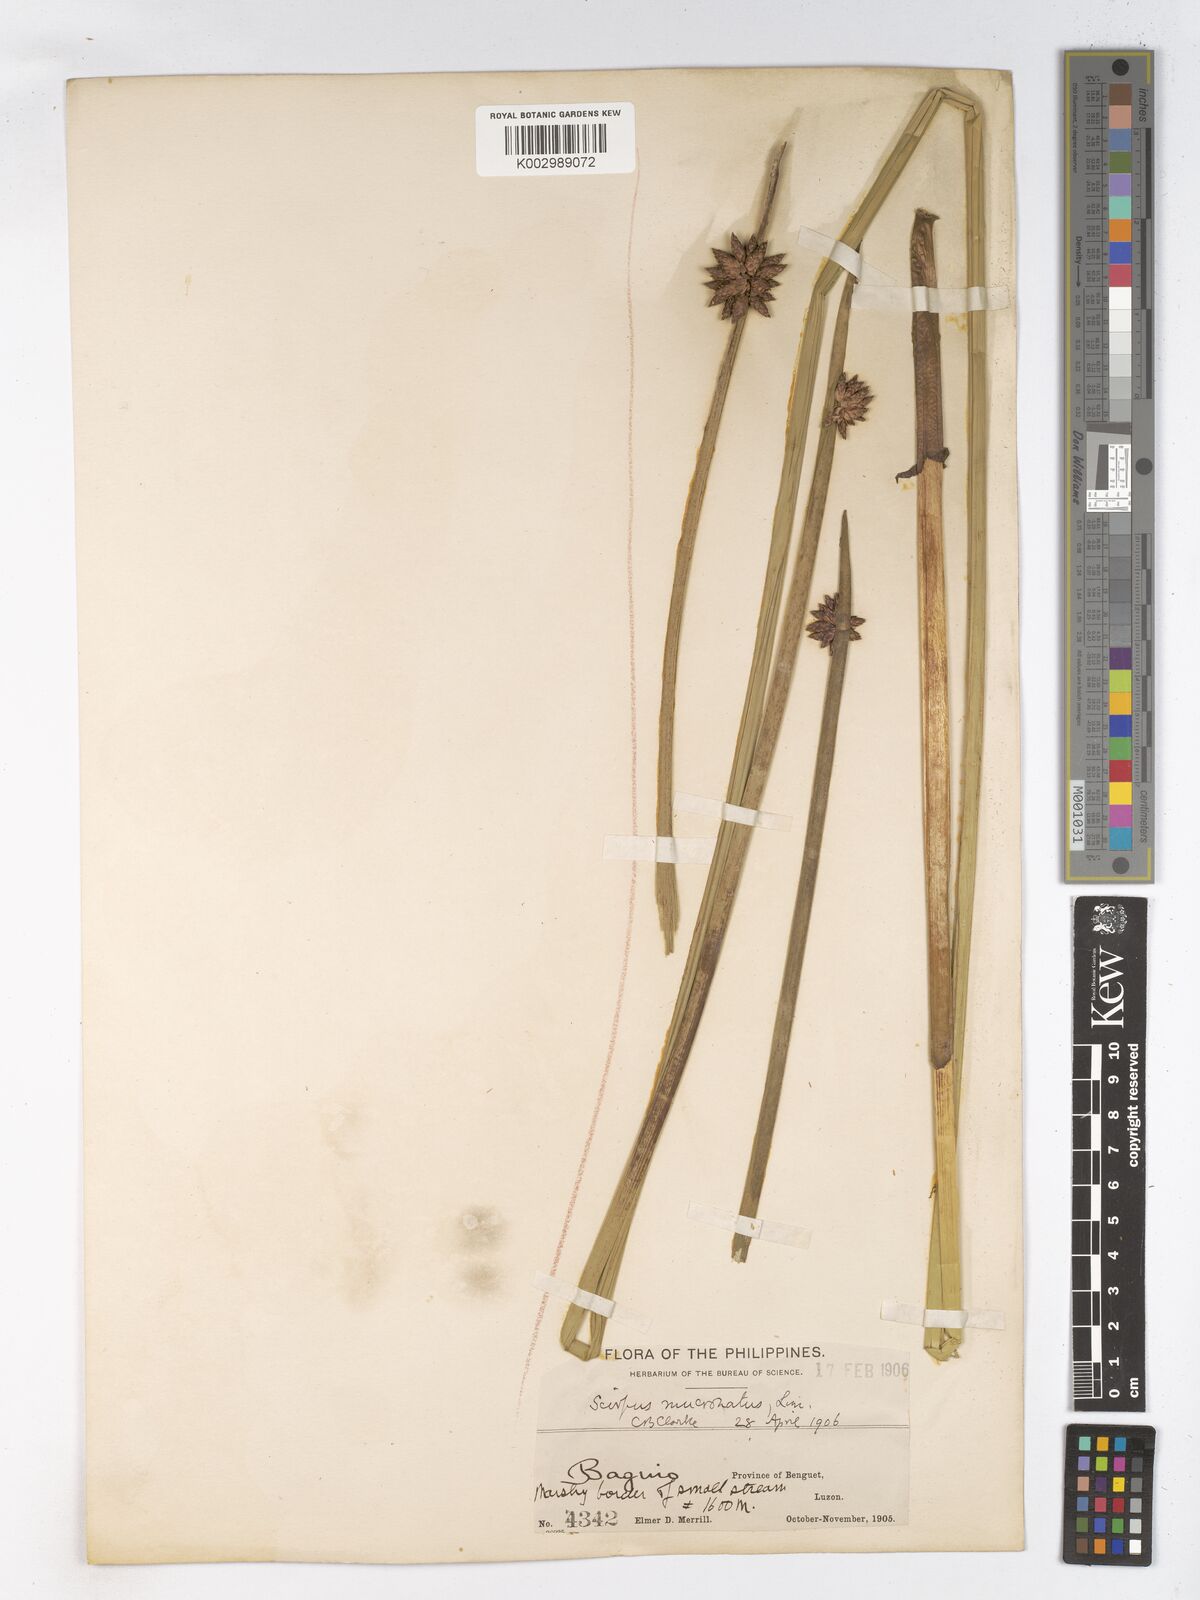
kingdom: Plantae
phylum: Tracheophyta
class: Liliopsida
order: Poales
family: Cyperaceae
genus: Schoenoplectiella
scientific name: Schoenoplectiella mucronata
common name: Bog bulrush
